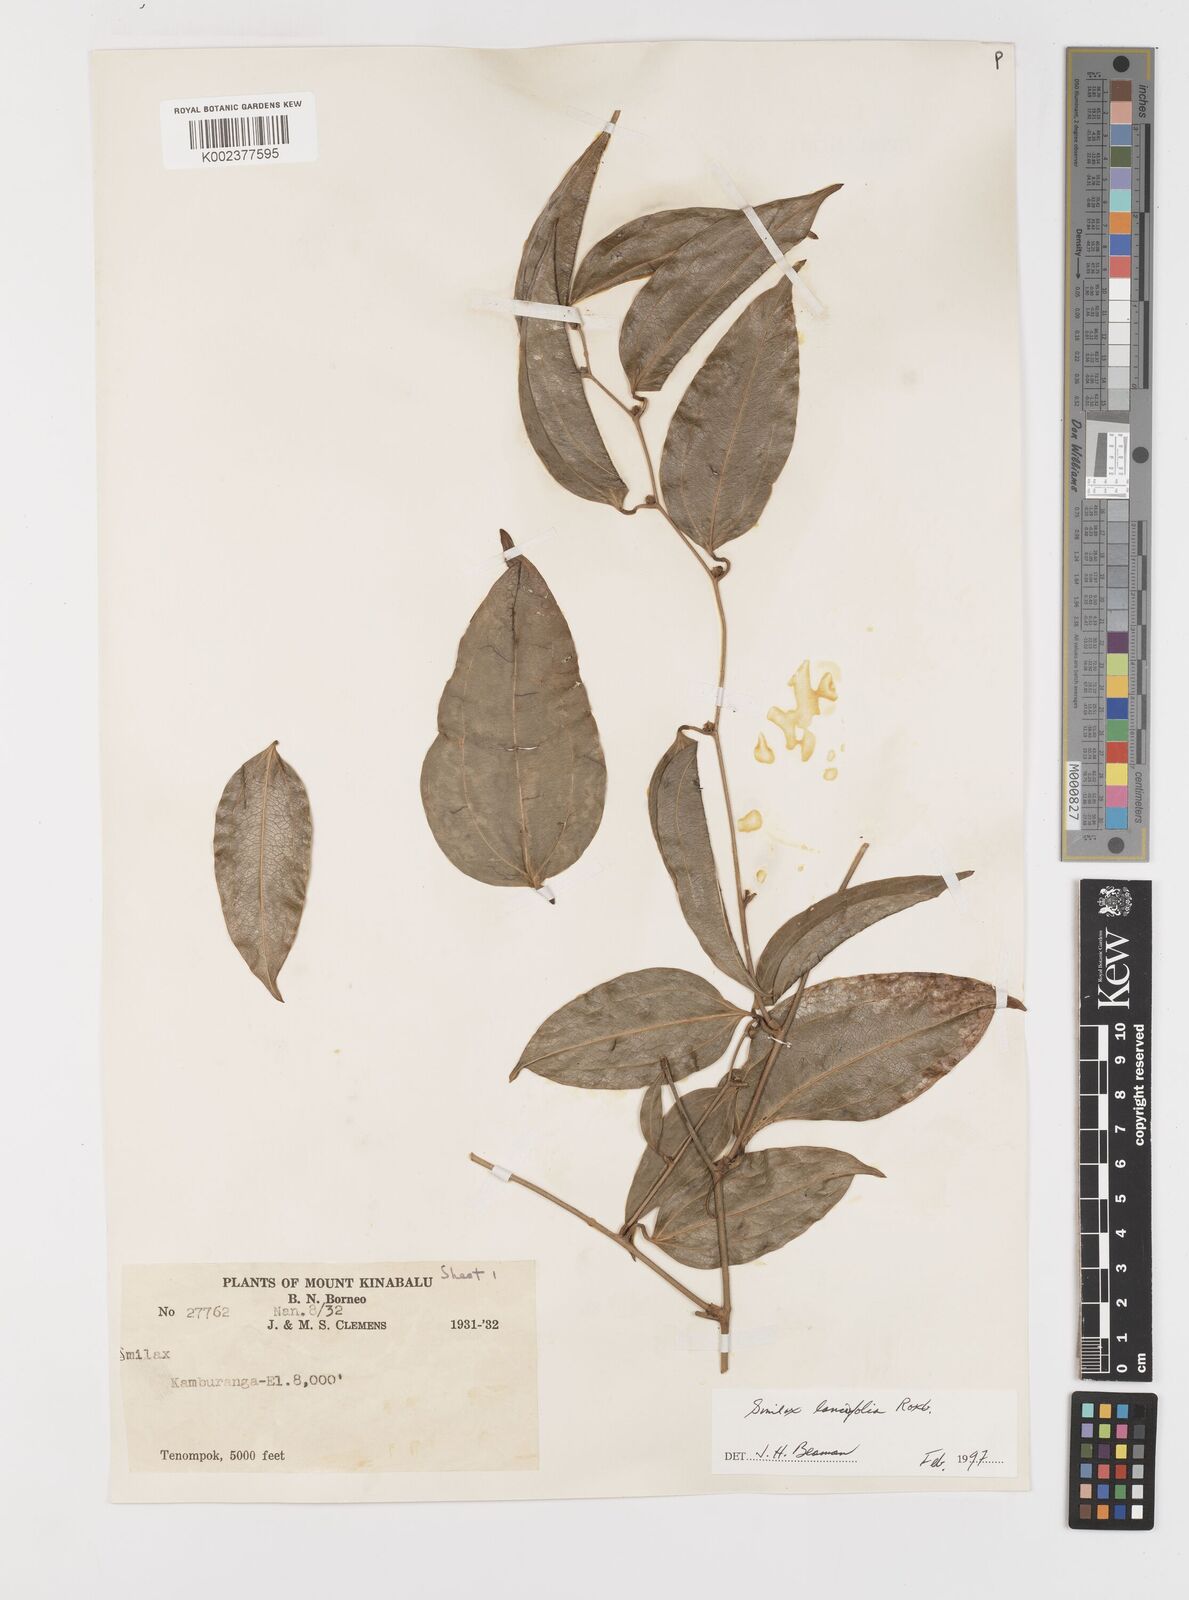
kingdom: Plantae
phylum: Tracheophyta
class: Liliopsida
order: Liliales
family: Smilacaceae
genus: Smilax
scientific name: Smilax lanceifolia
